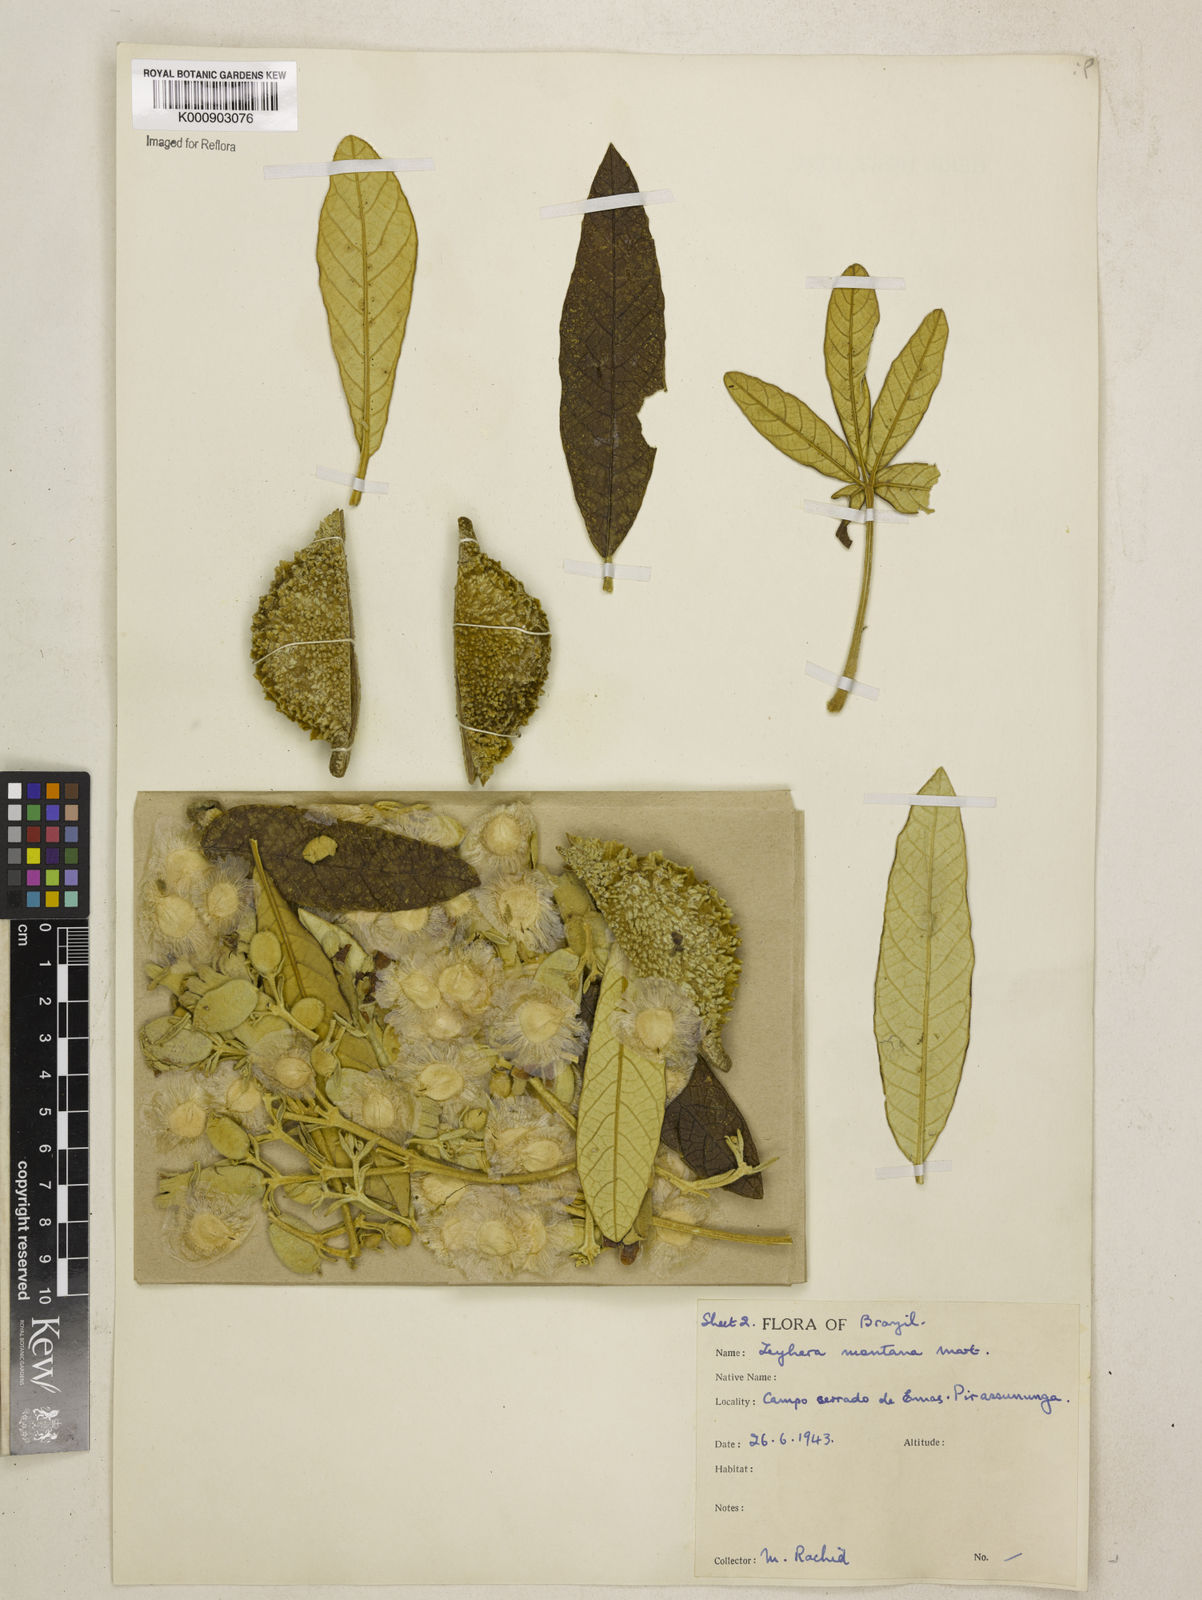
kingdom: Plantae
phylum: Tracheophyta
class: Magnoliopsida
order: Lamiales
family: Bignoniaceae
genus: Zeyheria
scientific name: Zeyheria
